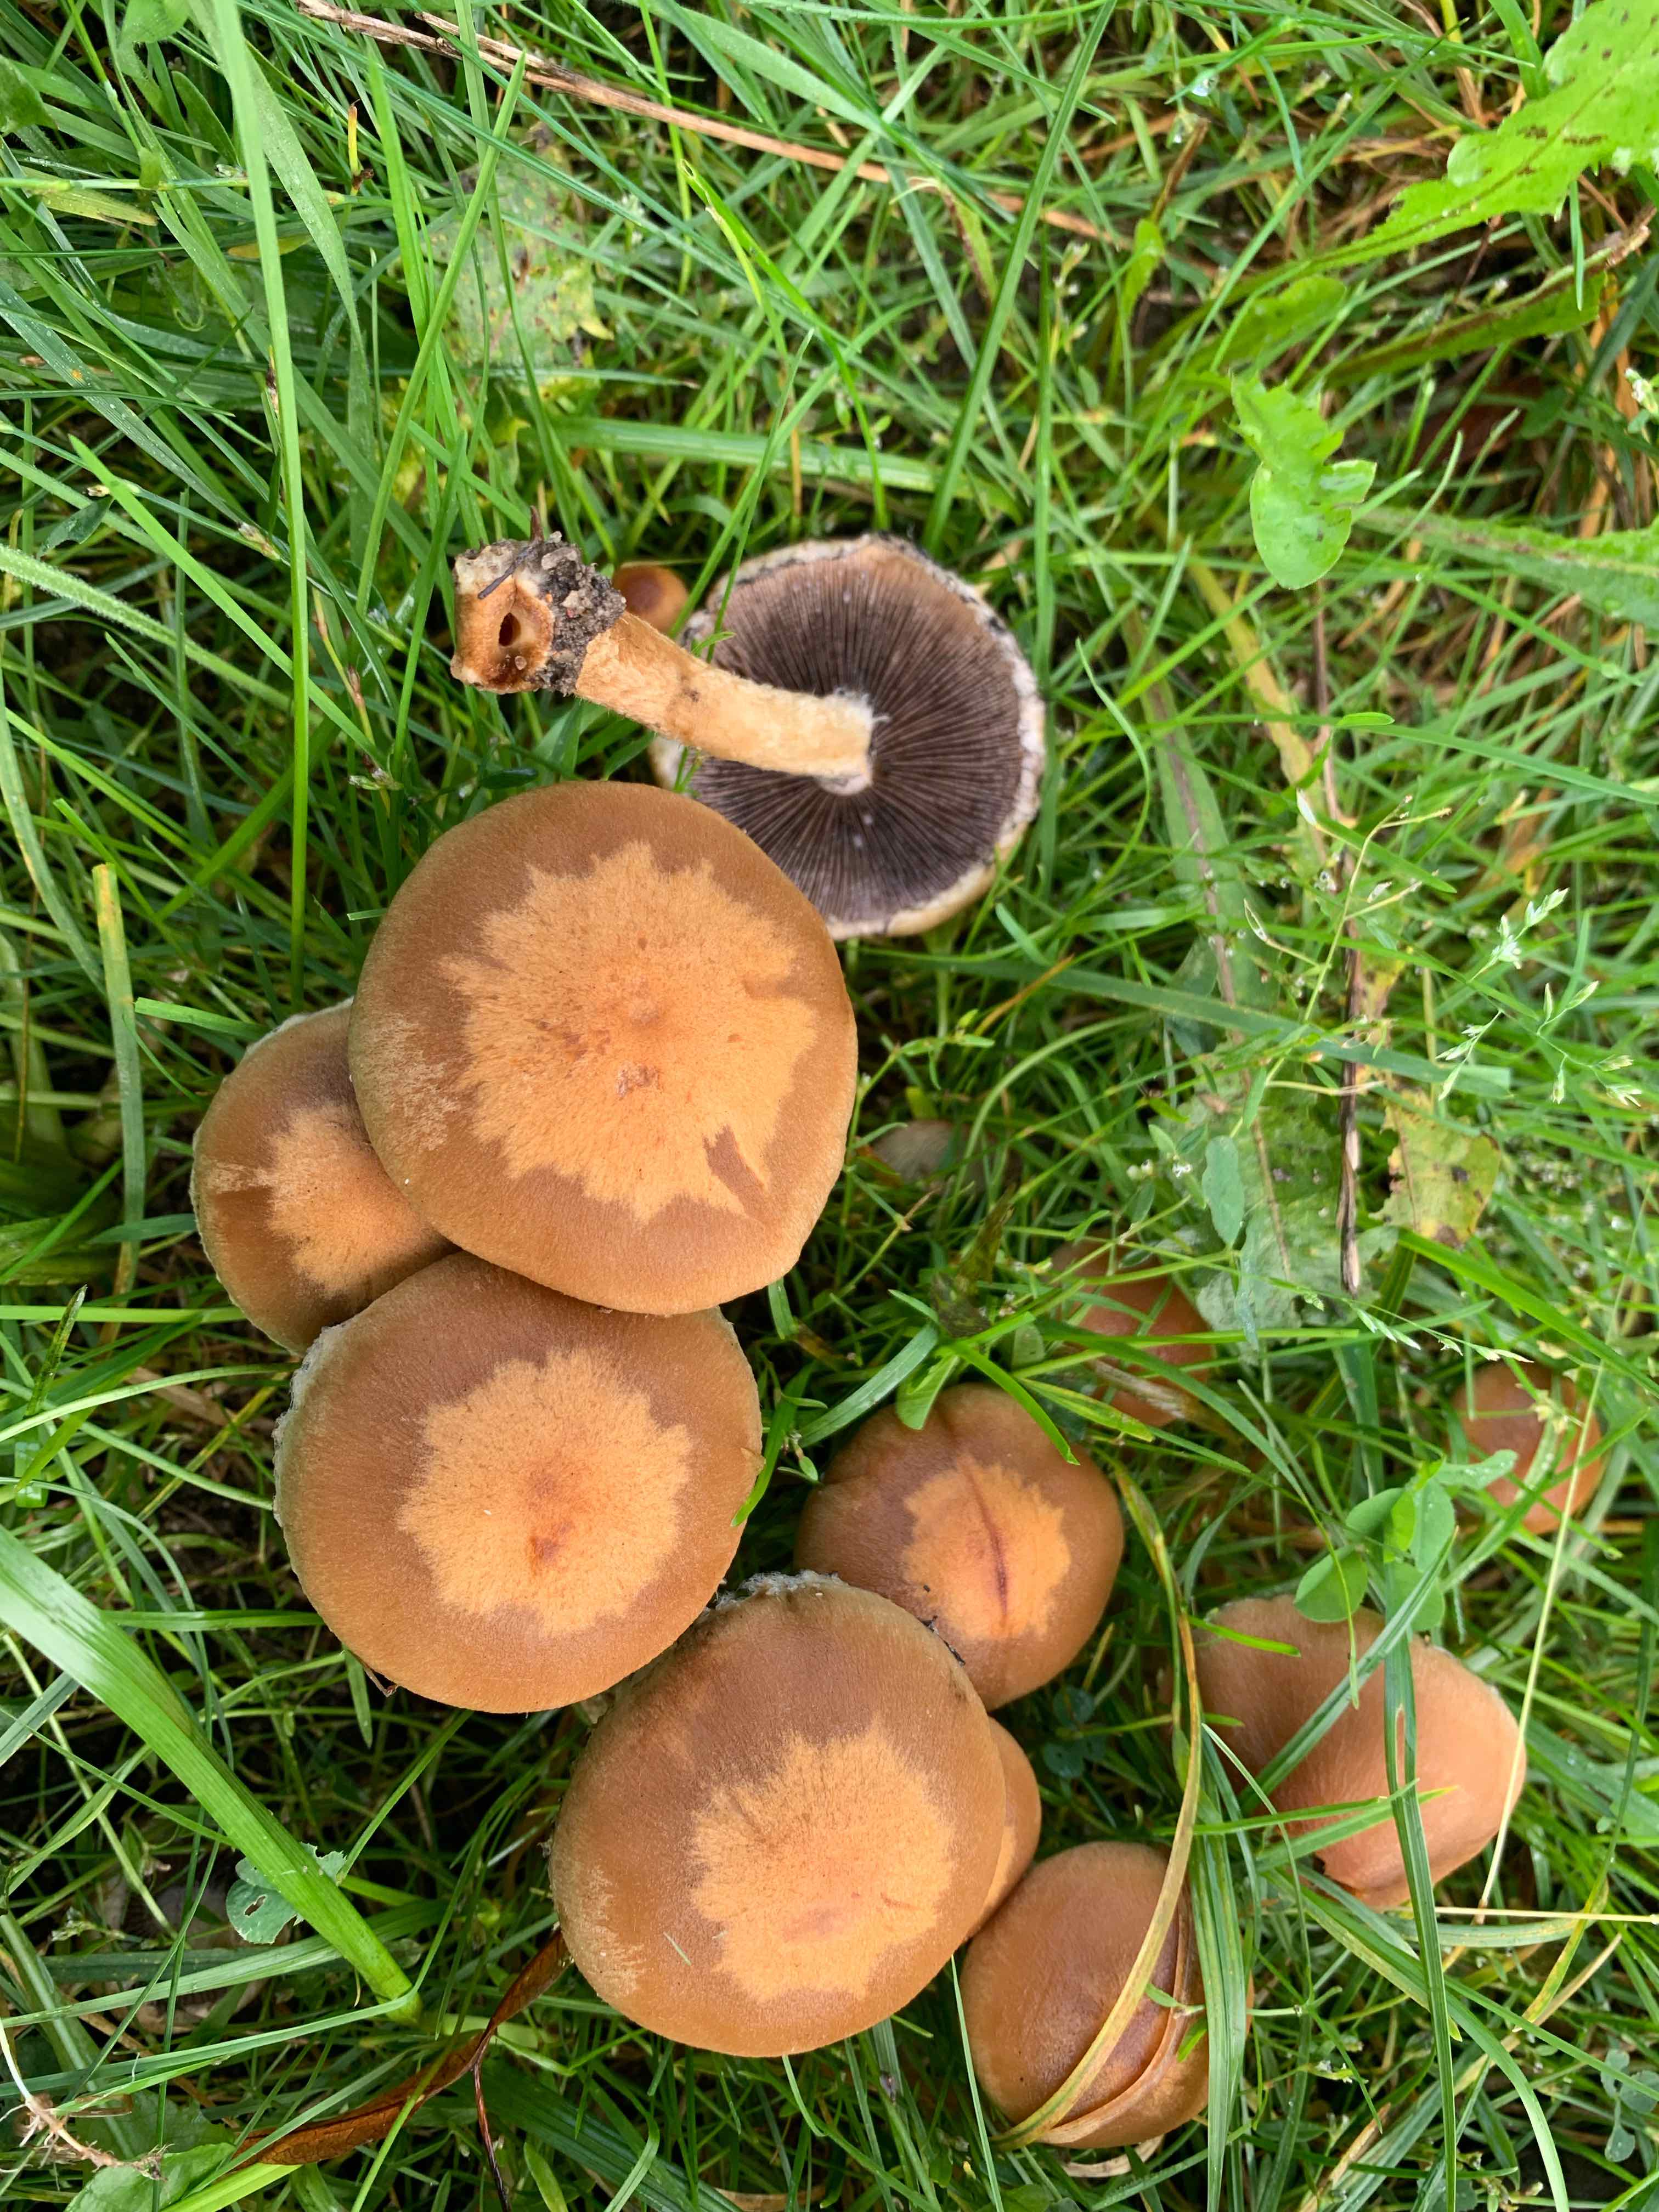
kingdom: Fungi
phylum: Basidiomycota
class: Agaricomycetes
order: Agaricales
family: Psathyrellaceae
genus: Lacrymaria
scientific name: Lacrymaria lacrymabunda
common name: grædende mørkhat
